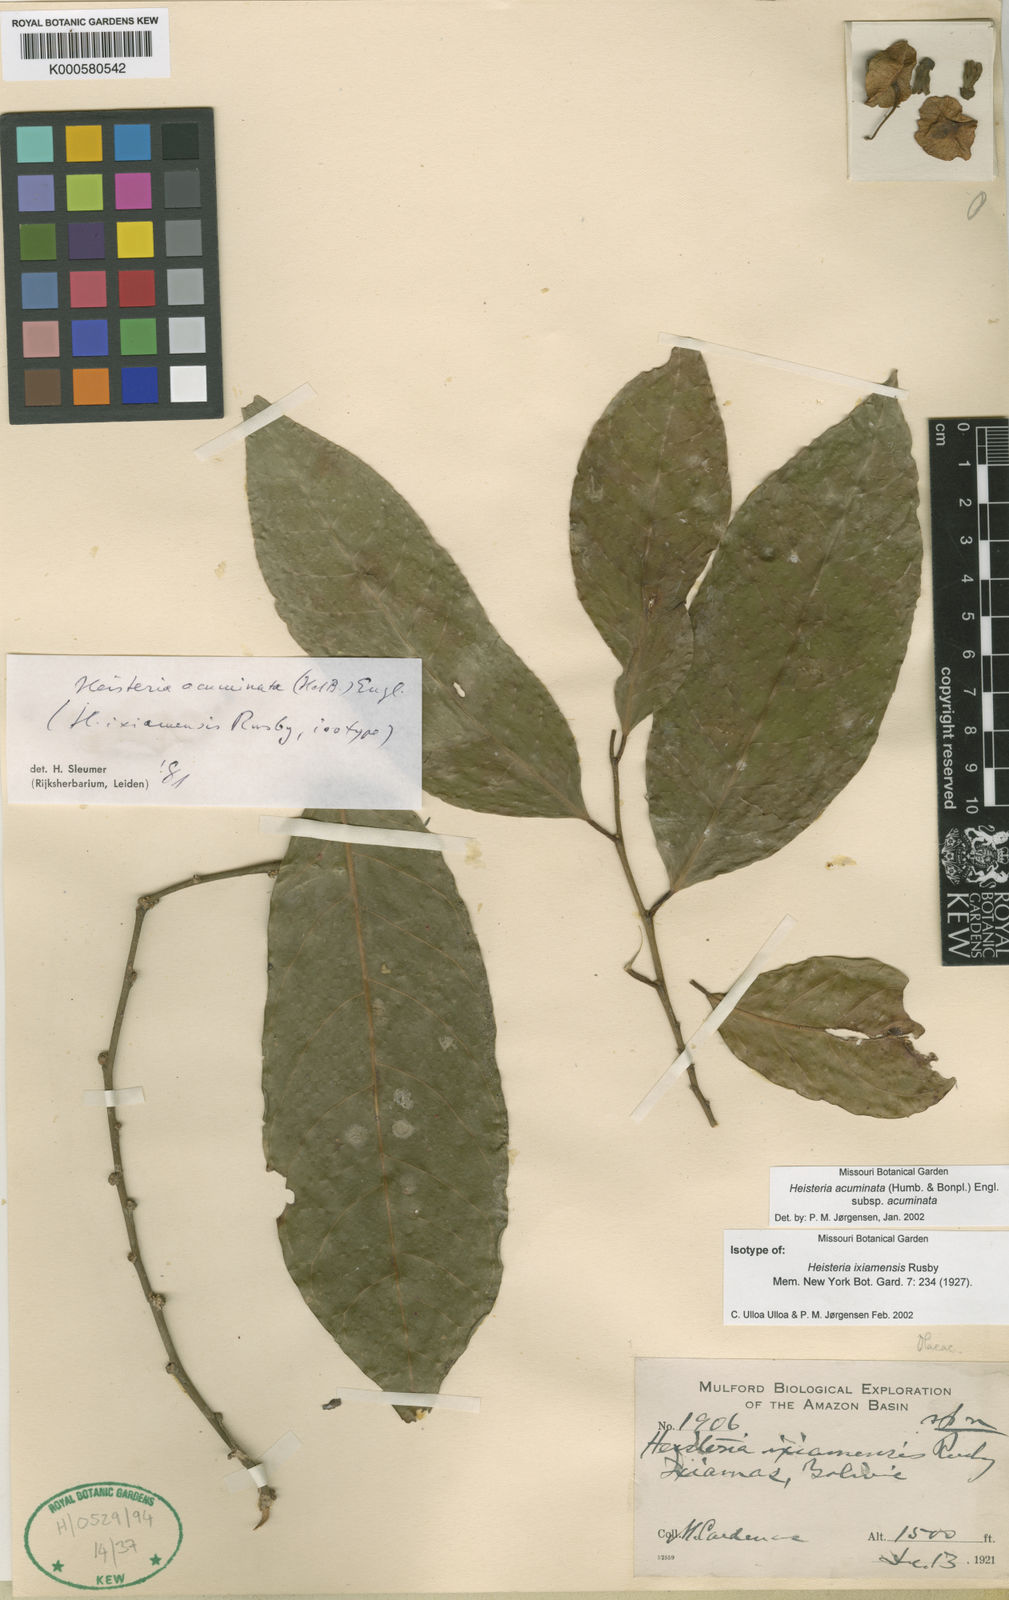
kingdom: Plantae
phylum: Tracheophyta
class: Magnoliopsida
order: Santalales
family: Erythropalaceae
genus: Heisteria
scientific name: Heisteria acuminata
